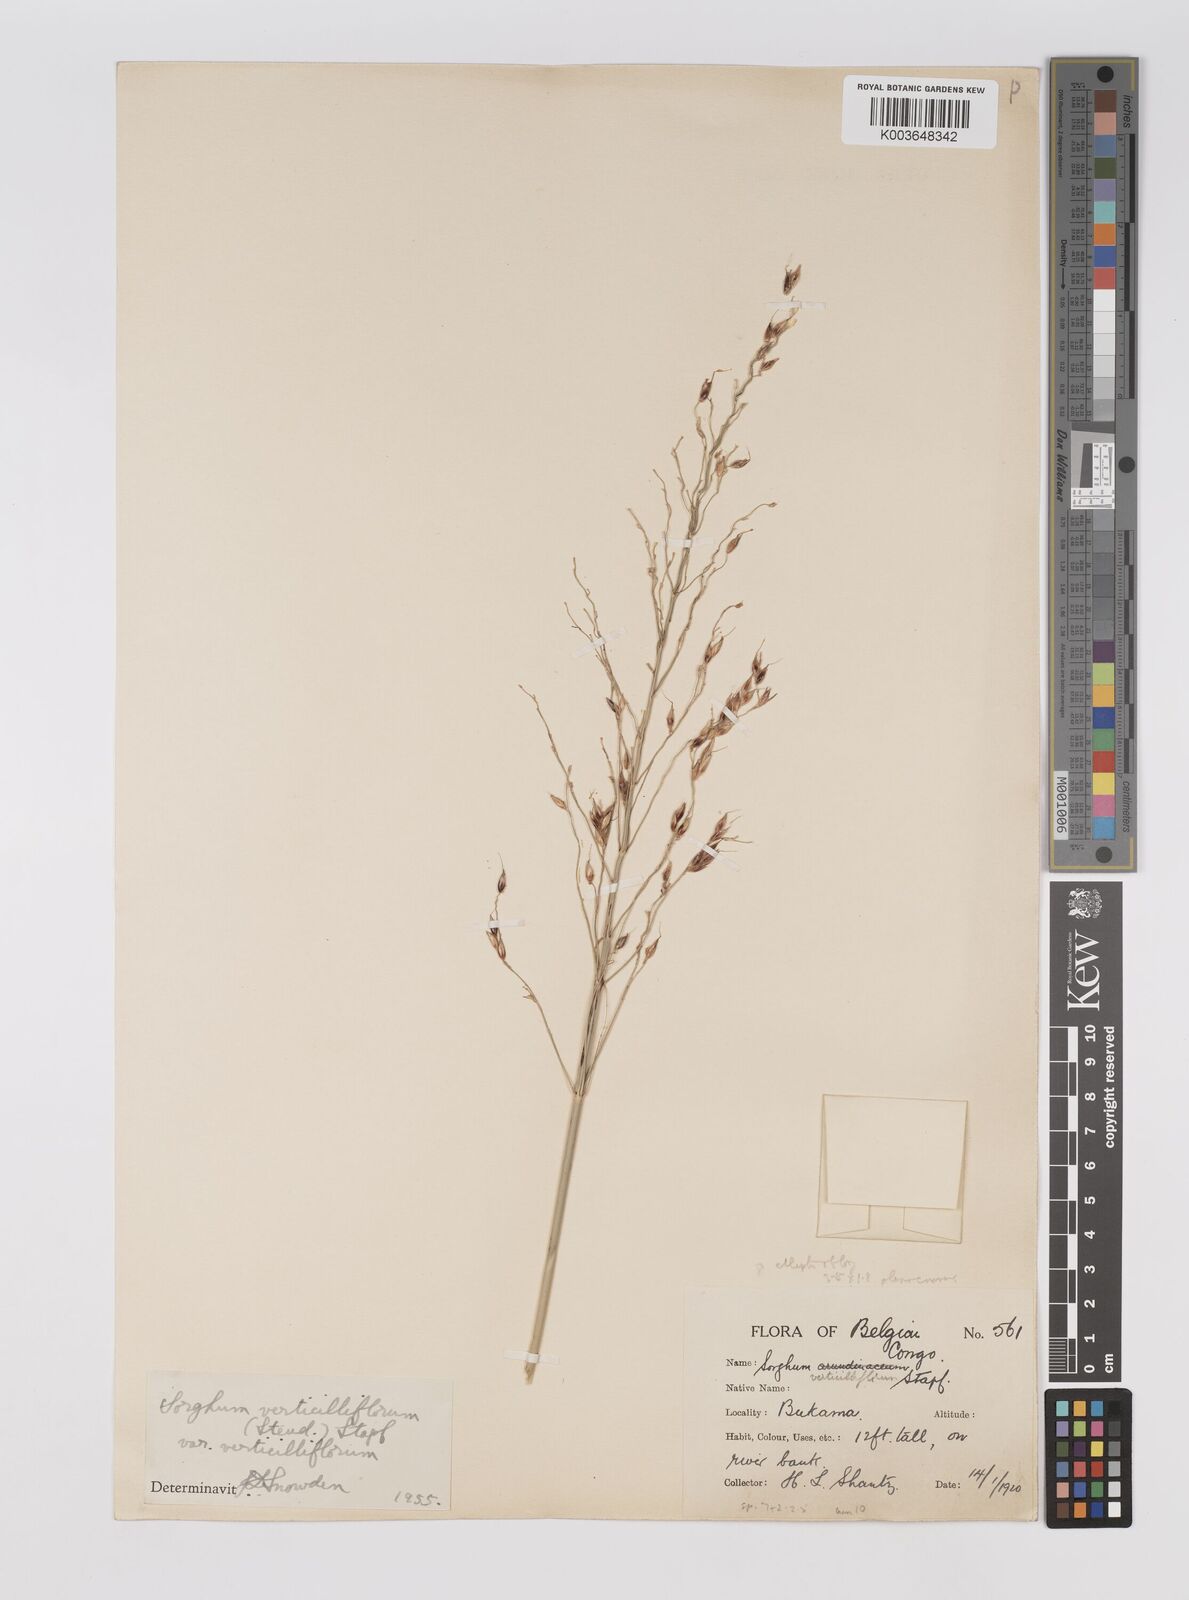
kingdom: Plantae
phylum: Tracheophyta
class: Liliopsida
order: Poales
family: Poaceae
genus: Sorghum
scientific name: Sorghum arundinaceum
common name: Sorghum
